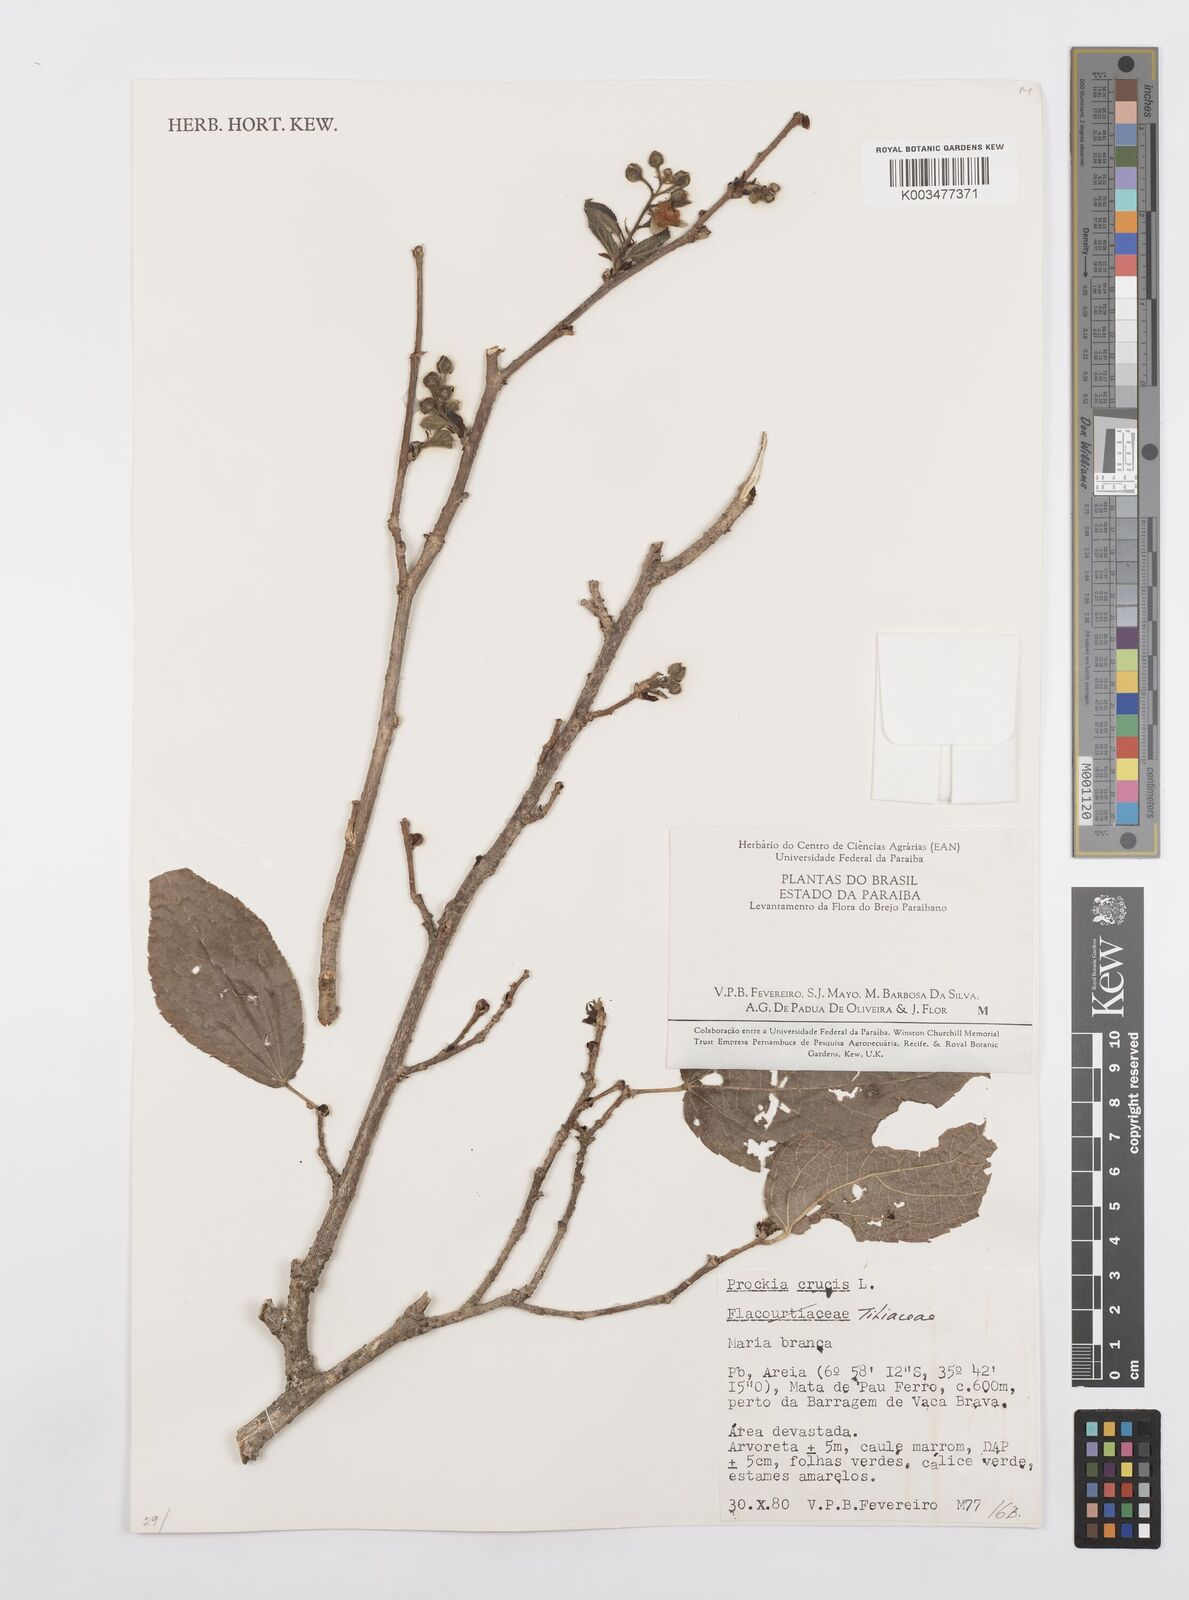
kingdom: Plantae
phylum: Tracheophyta
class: Magnoliopsida
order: Malpighiales
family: Salicaceae
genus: Prockia
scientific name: Prockia crucis
